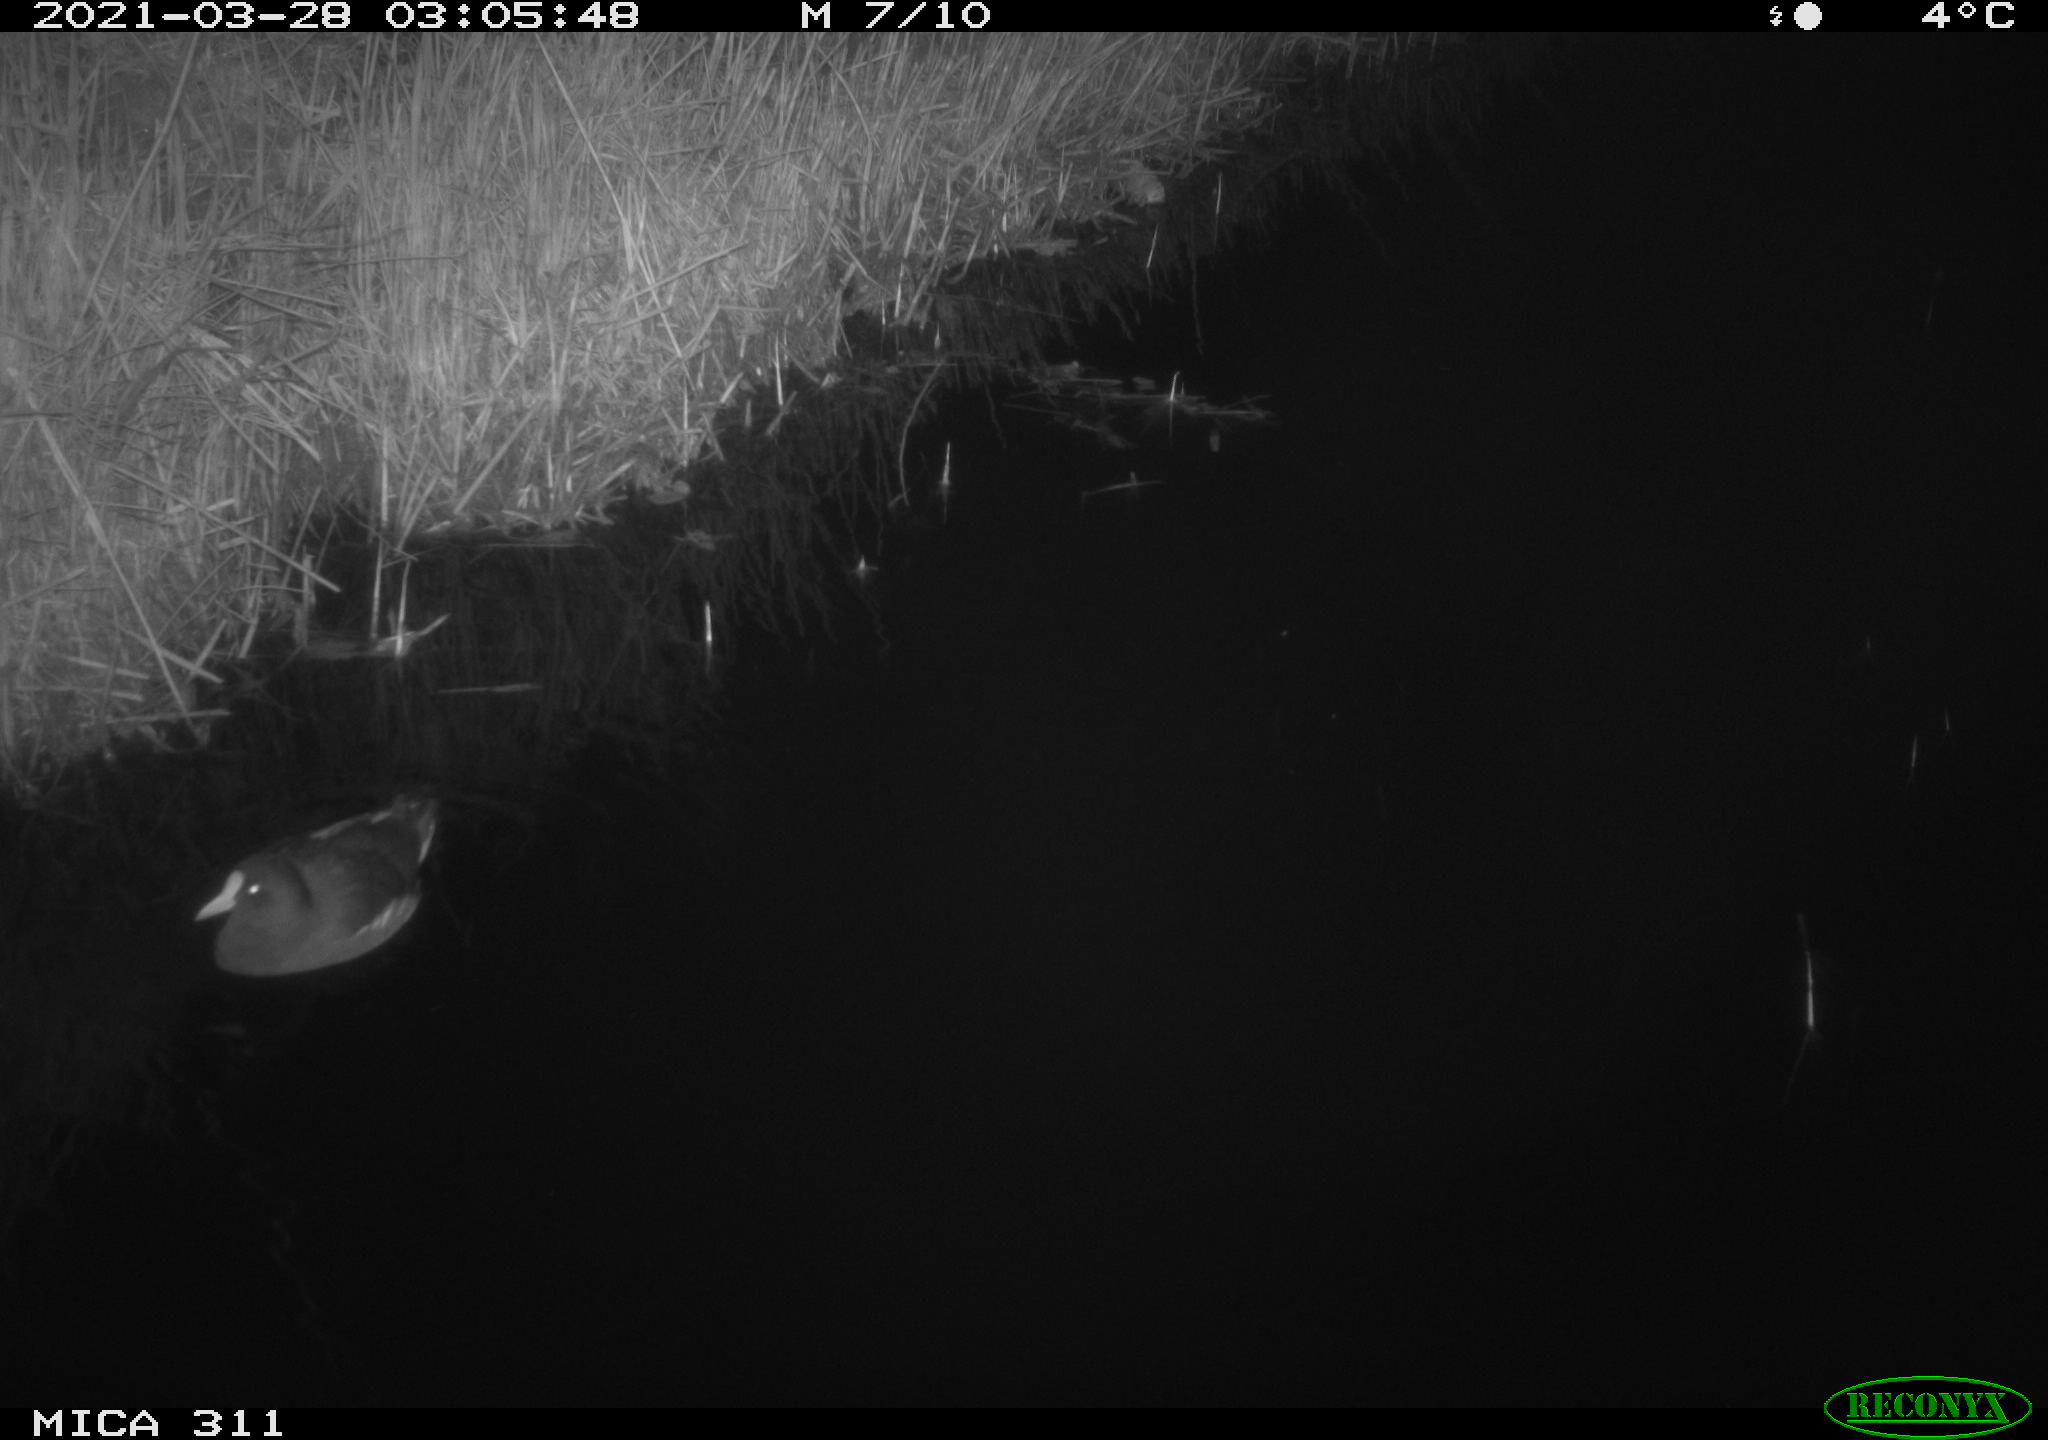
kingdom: Animalia
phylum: Chordata
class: Aves
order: Gruiformes
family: Rallidae
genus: Gallinula
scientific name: Gallinula chloropus
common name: Common moorhen
